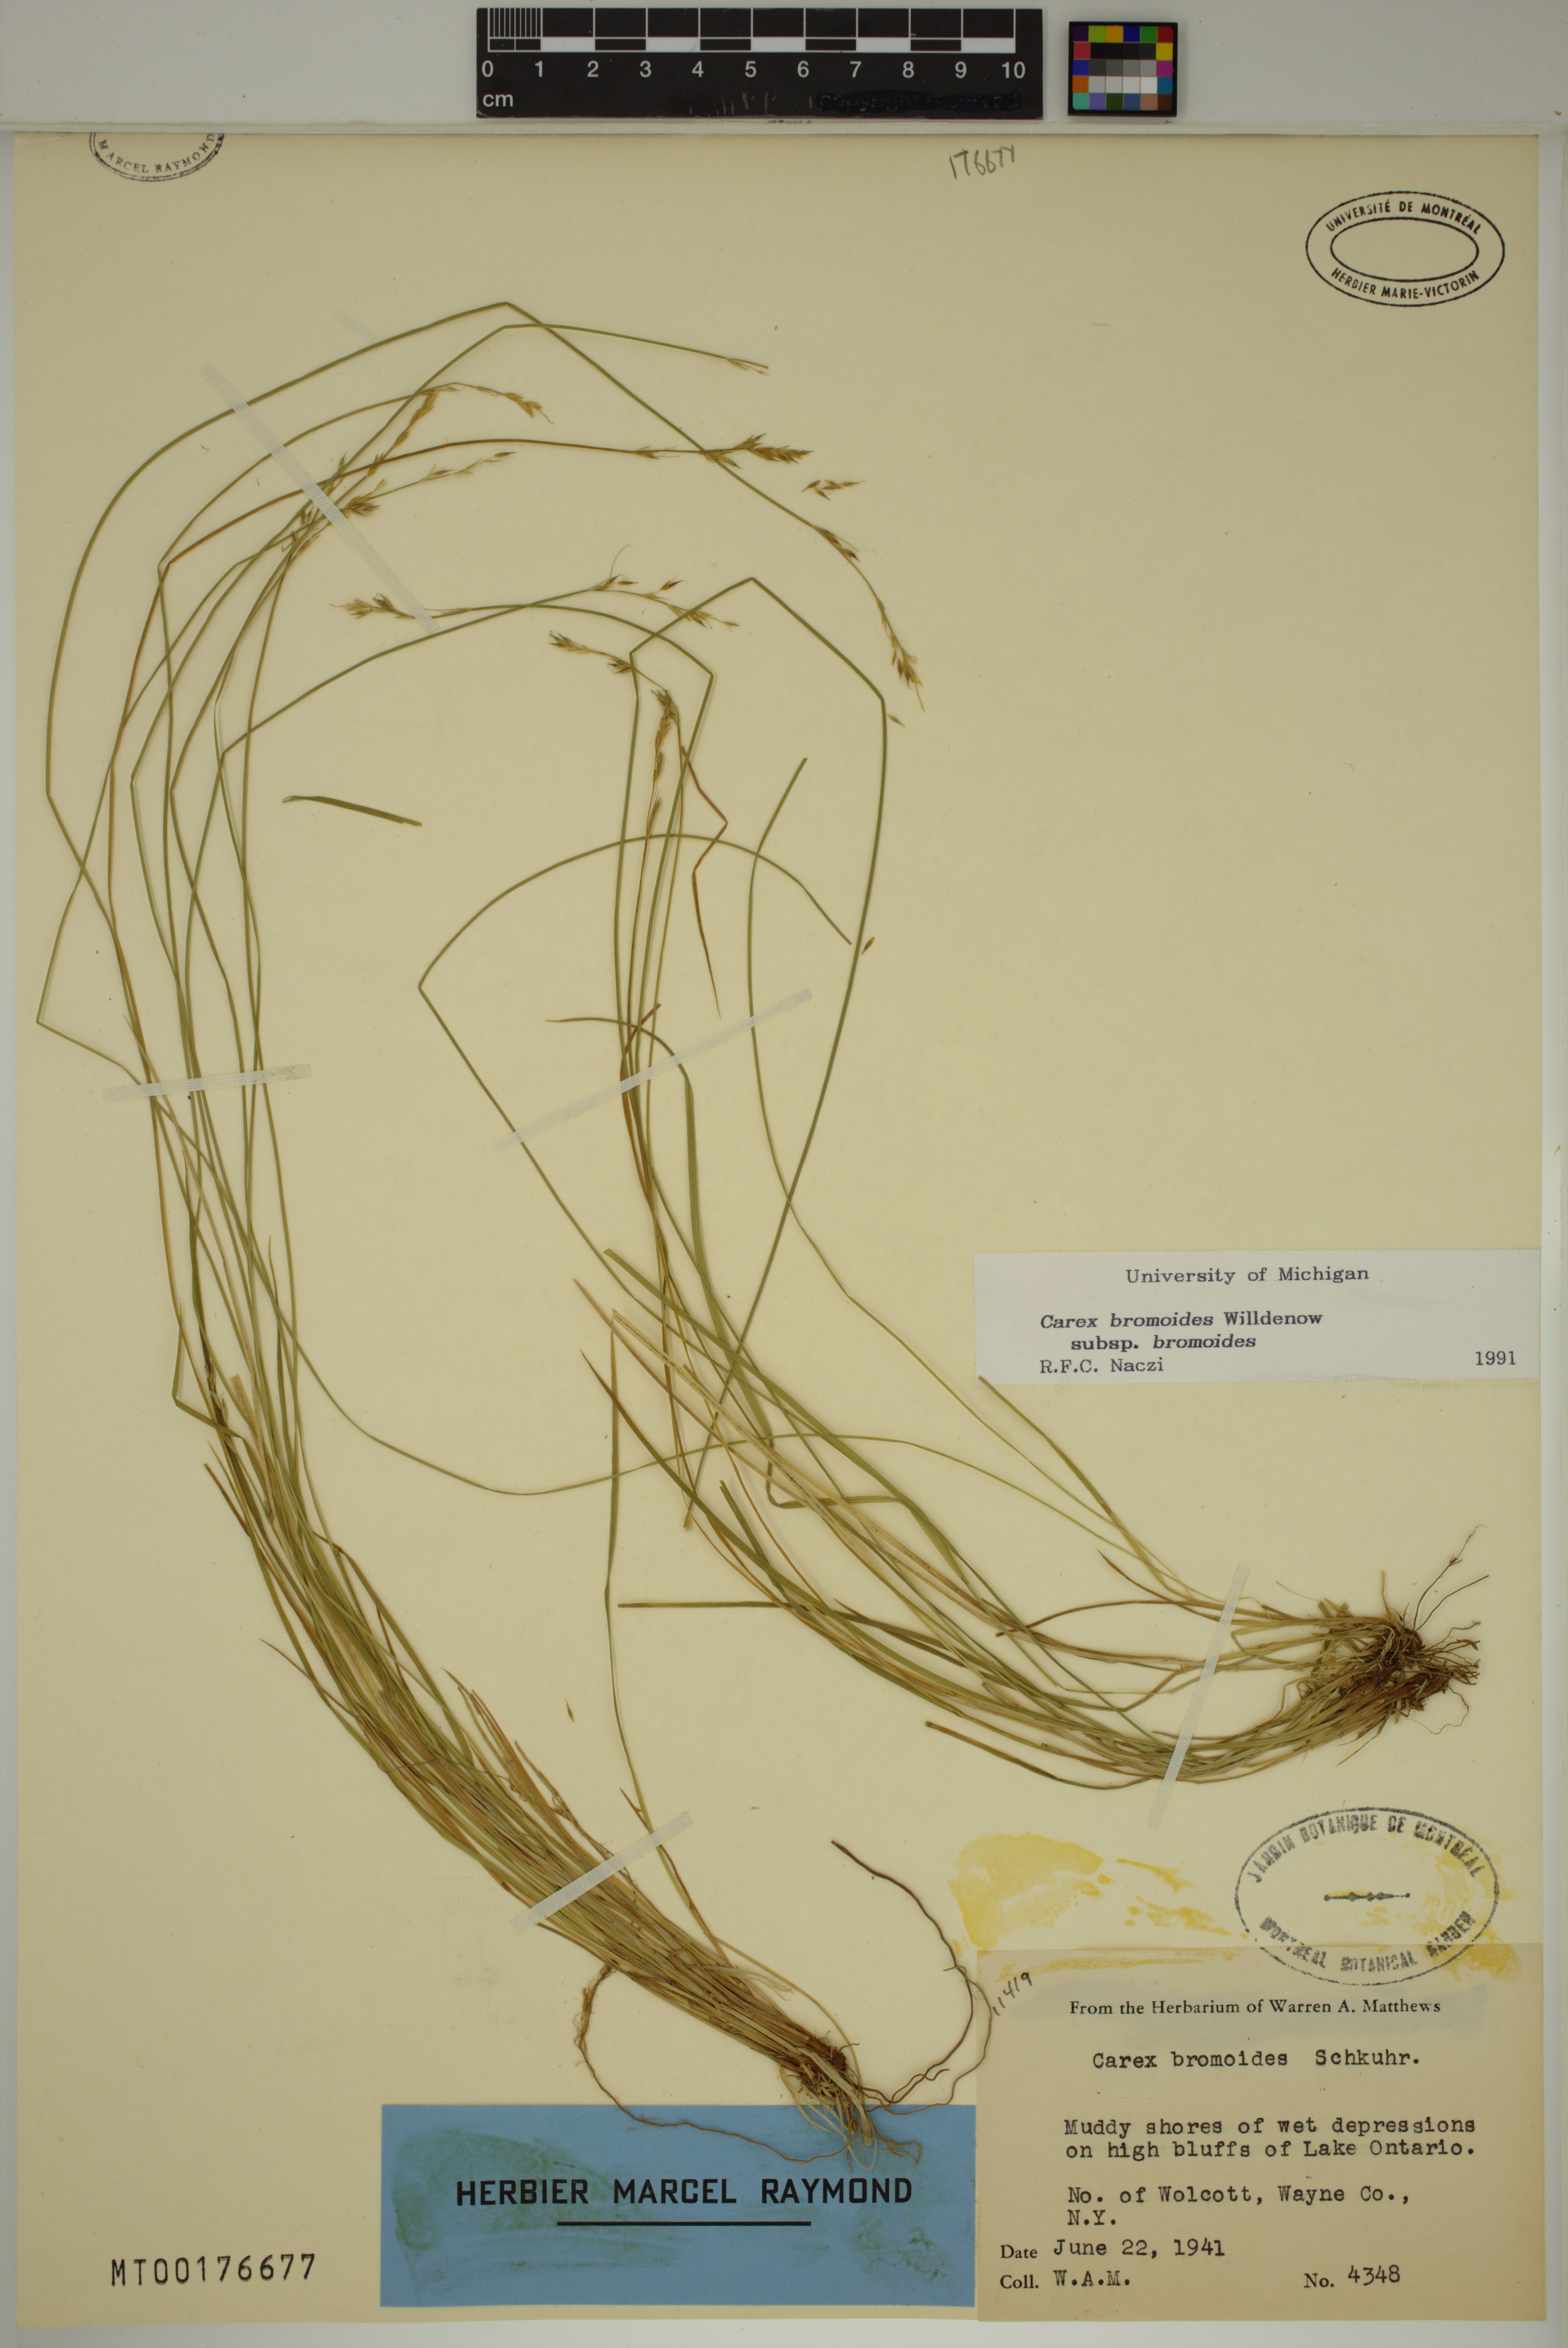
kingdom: Plantae
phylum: Tracheophyta
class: Liliopsida
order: Poales
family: Cyperaceae
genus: Carex
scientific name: Carex bromoides
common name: Brome hummock sedge
